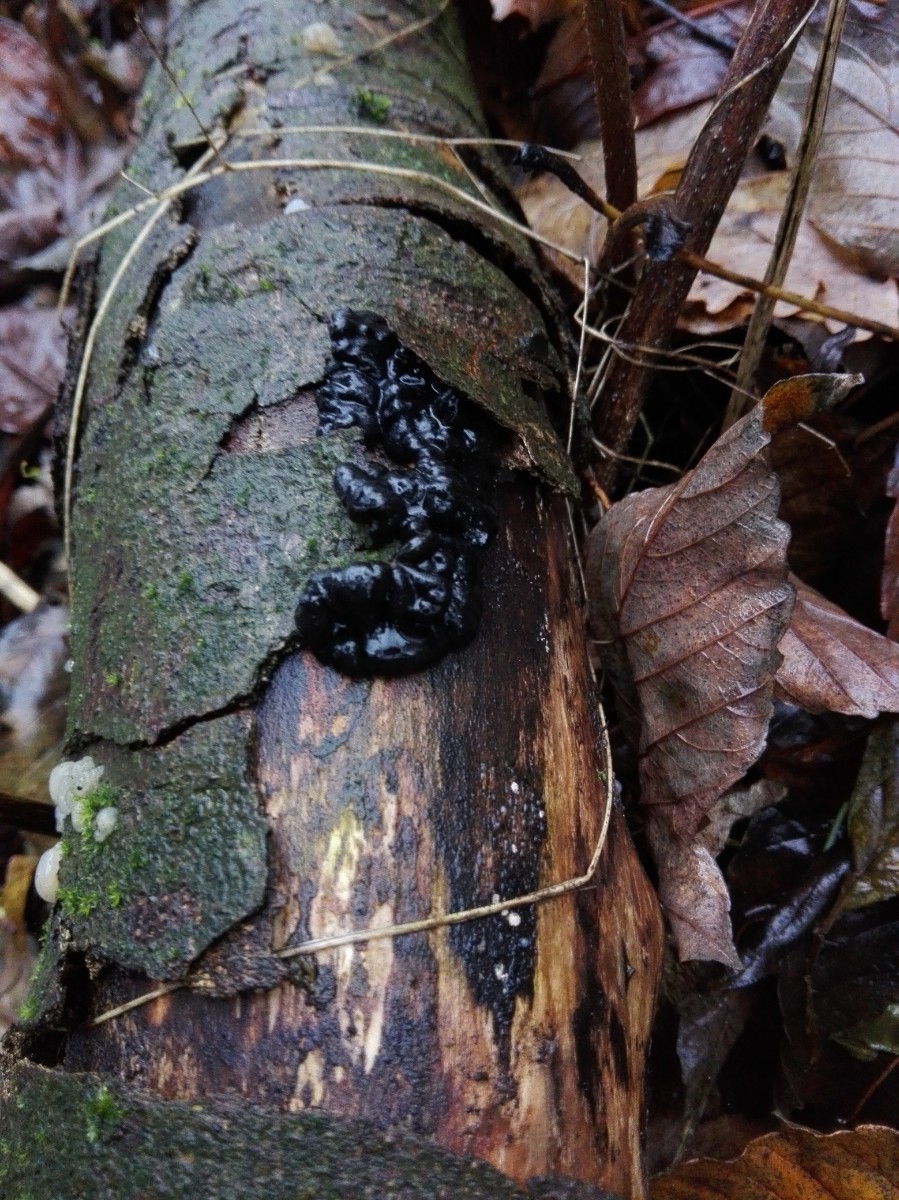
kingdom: Fungi
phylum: Basidiomycota
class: Agaricomycetes
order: Auriculariales
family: Auriculariaceae
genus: Exidia
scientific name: Exidia nigricans
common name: almindelig bævretop
